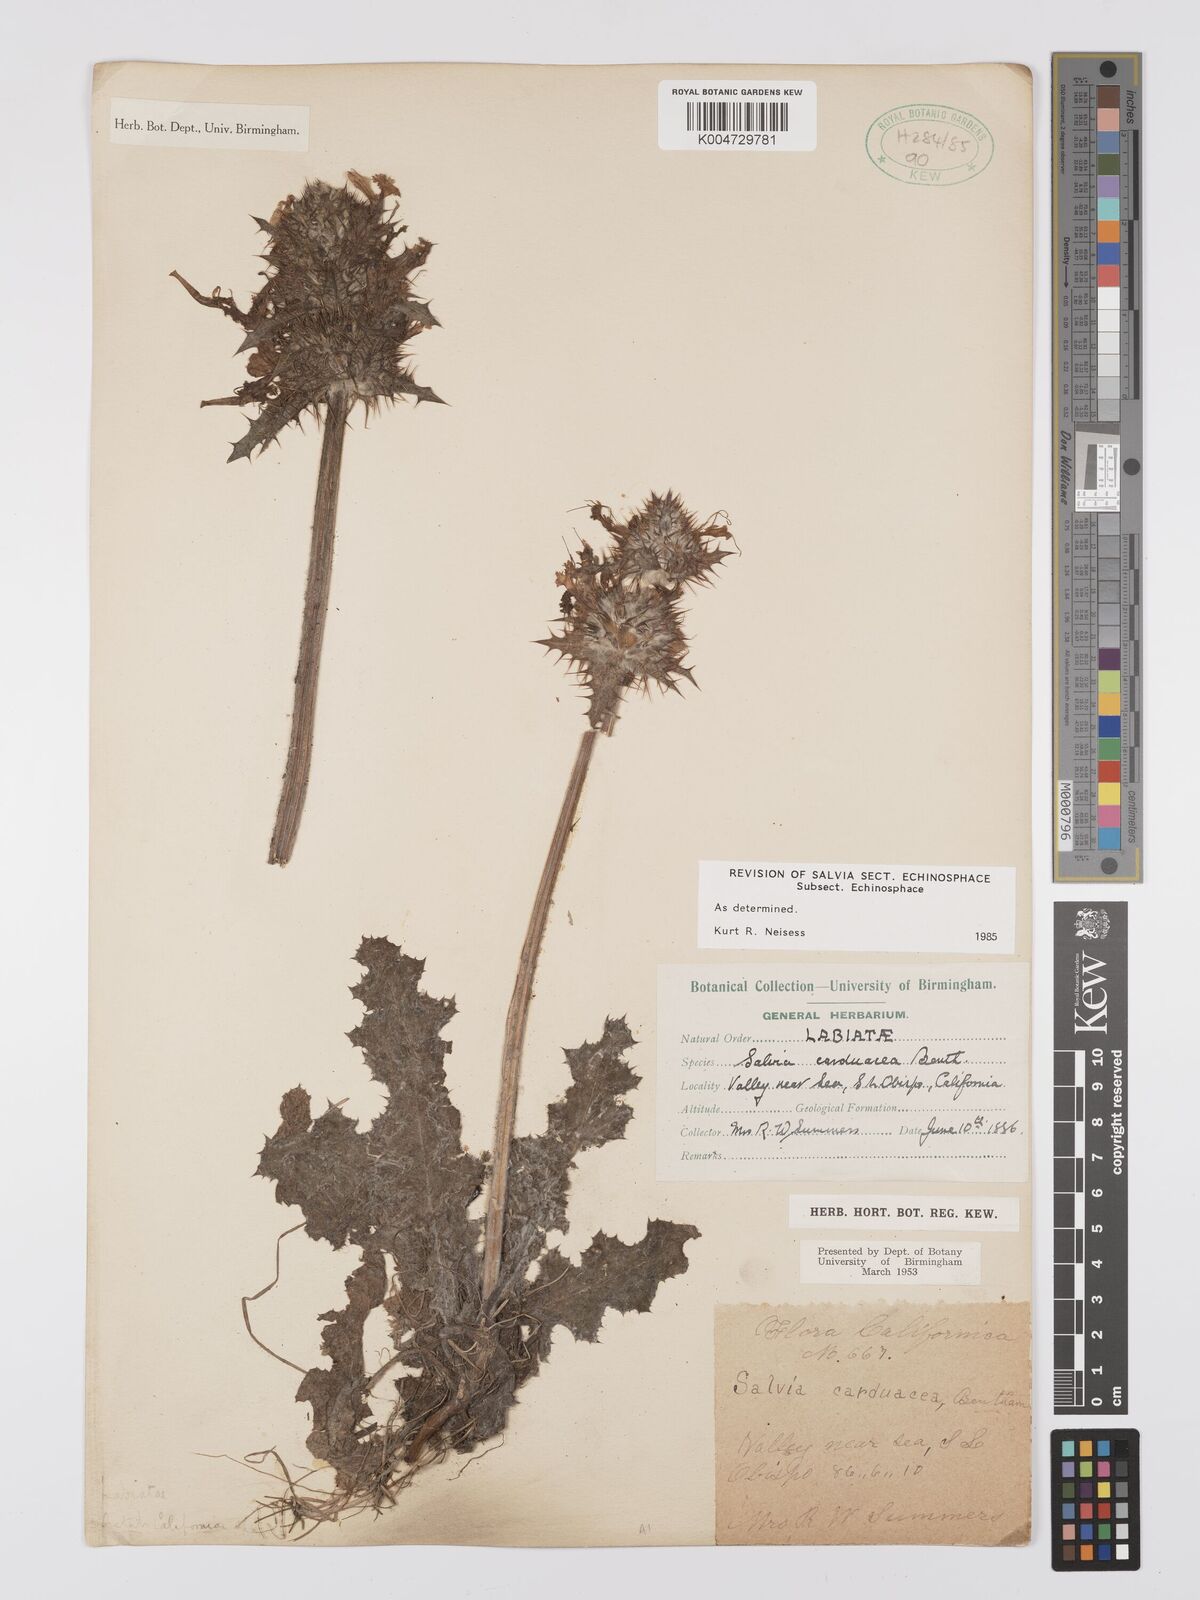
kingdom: Plantae
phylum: Tracheophyta
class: Magnoliopsida
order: Lamiales
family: Lamiaceae
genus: Salvia
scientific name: Salvia carduacea
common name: Thistle sage
